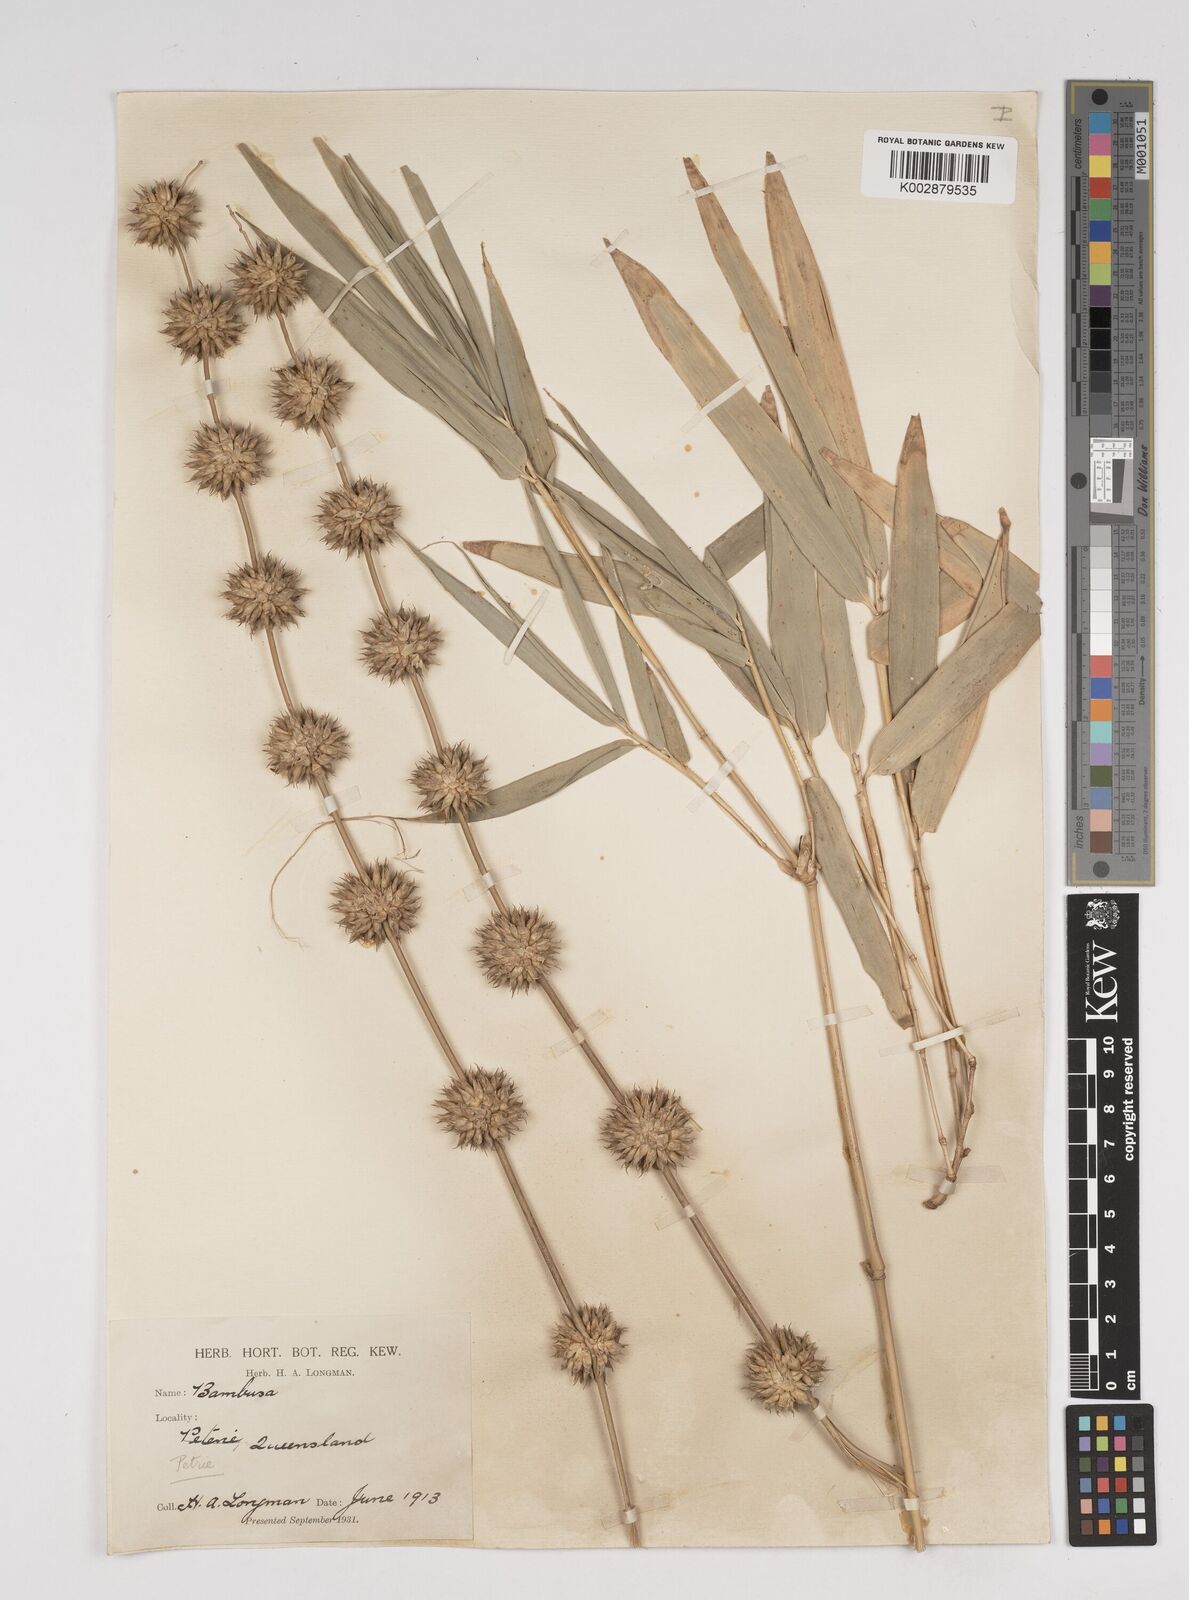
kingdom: Plantae
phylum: Tracheophyta
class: Liliopsida
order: Poales
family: Poaceae
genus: Dendrocalamus
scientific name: Dendrocalamus strictus
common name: Male bamboo
